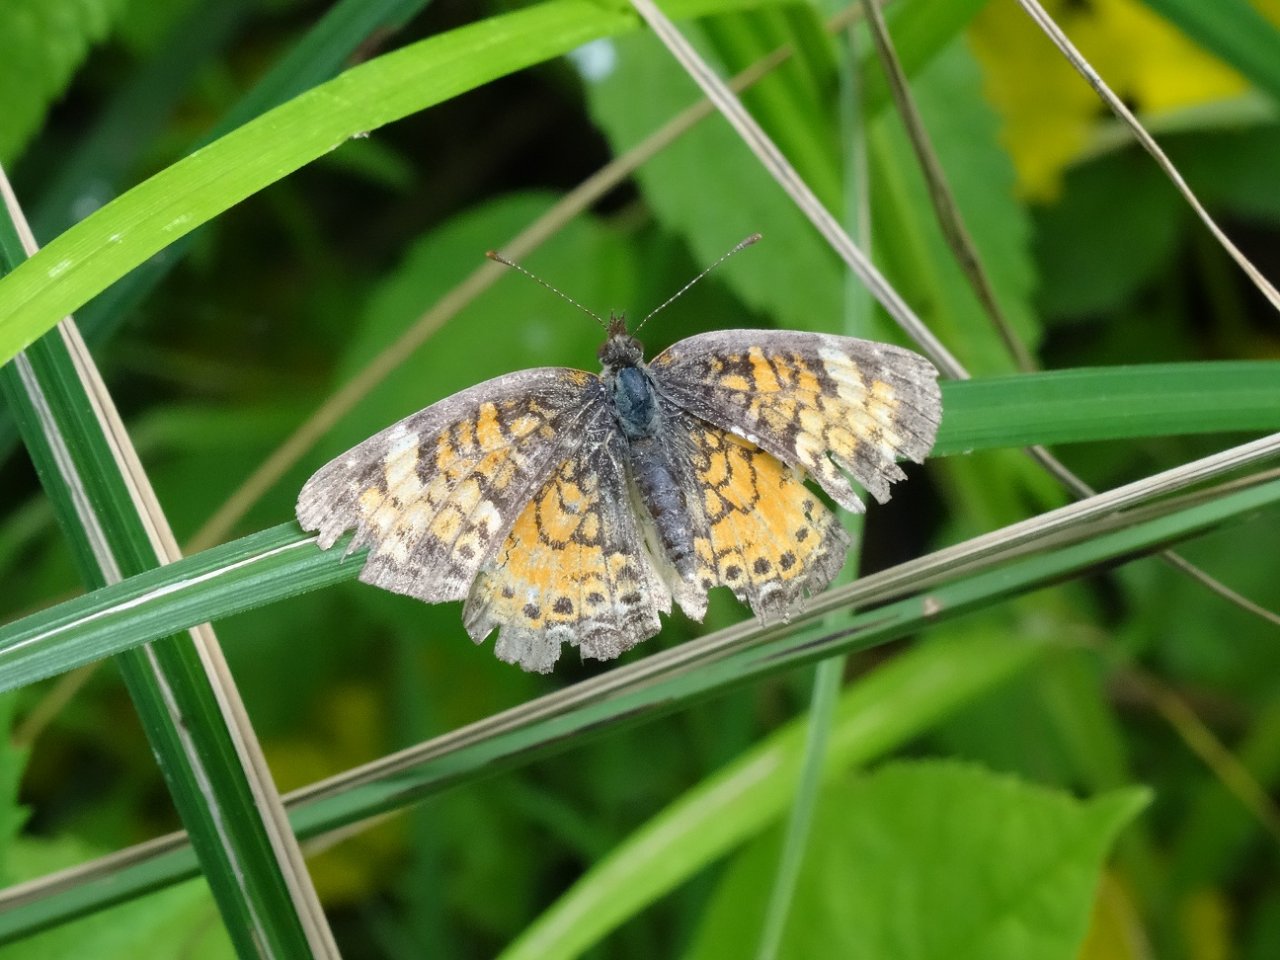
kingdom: Animalia
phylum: Arthropoda
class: Insecta
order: Lepidoptera
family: Nymphalidae
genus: Phyciodes
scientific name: Phyciodes tharos
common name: Pearl Crescent
